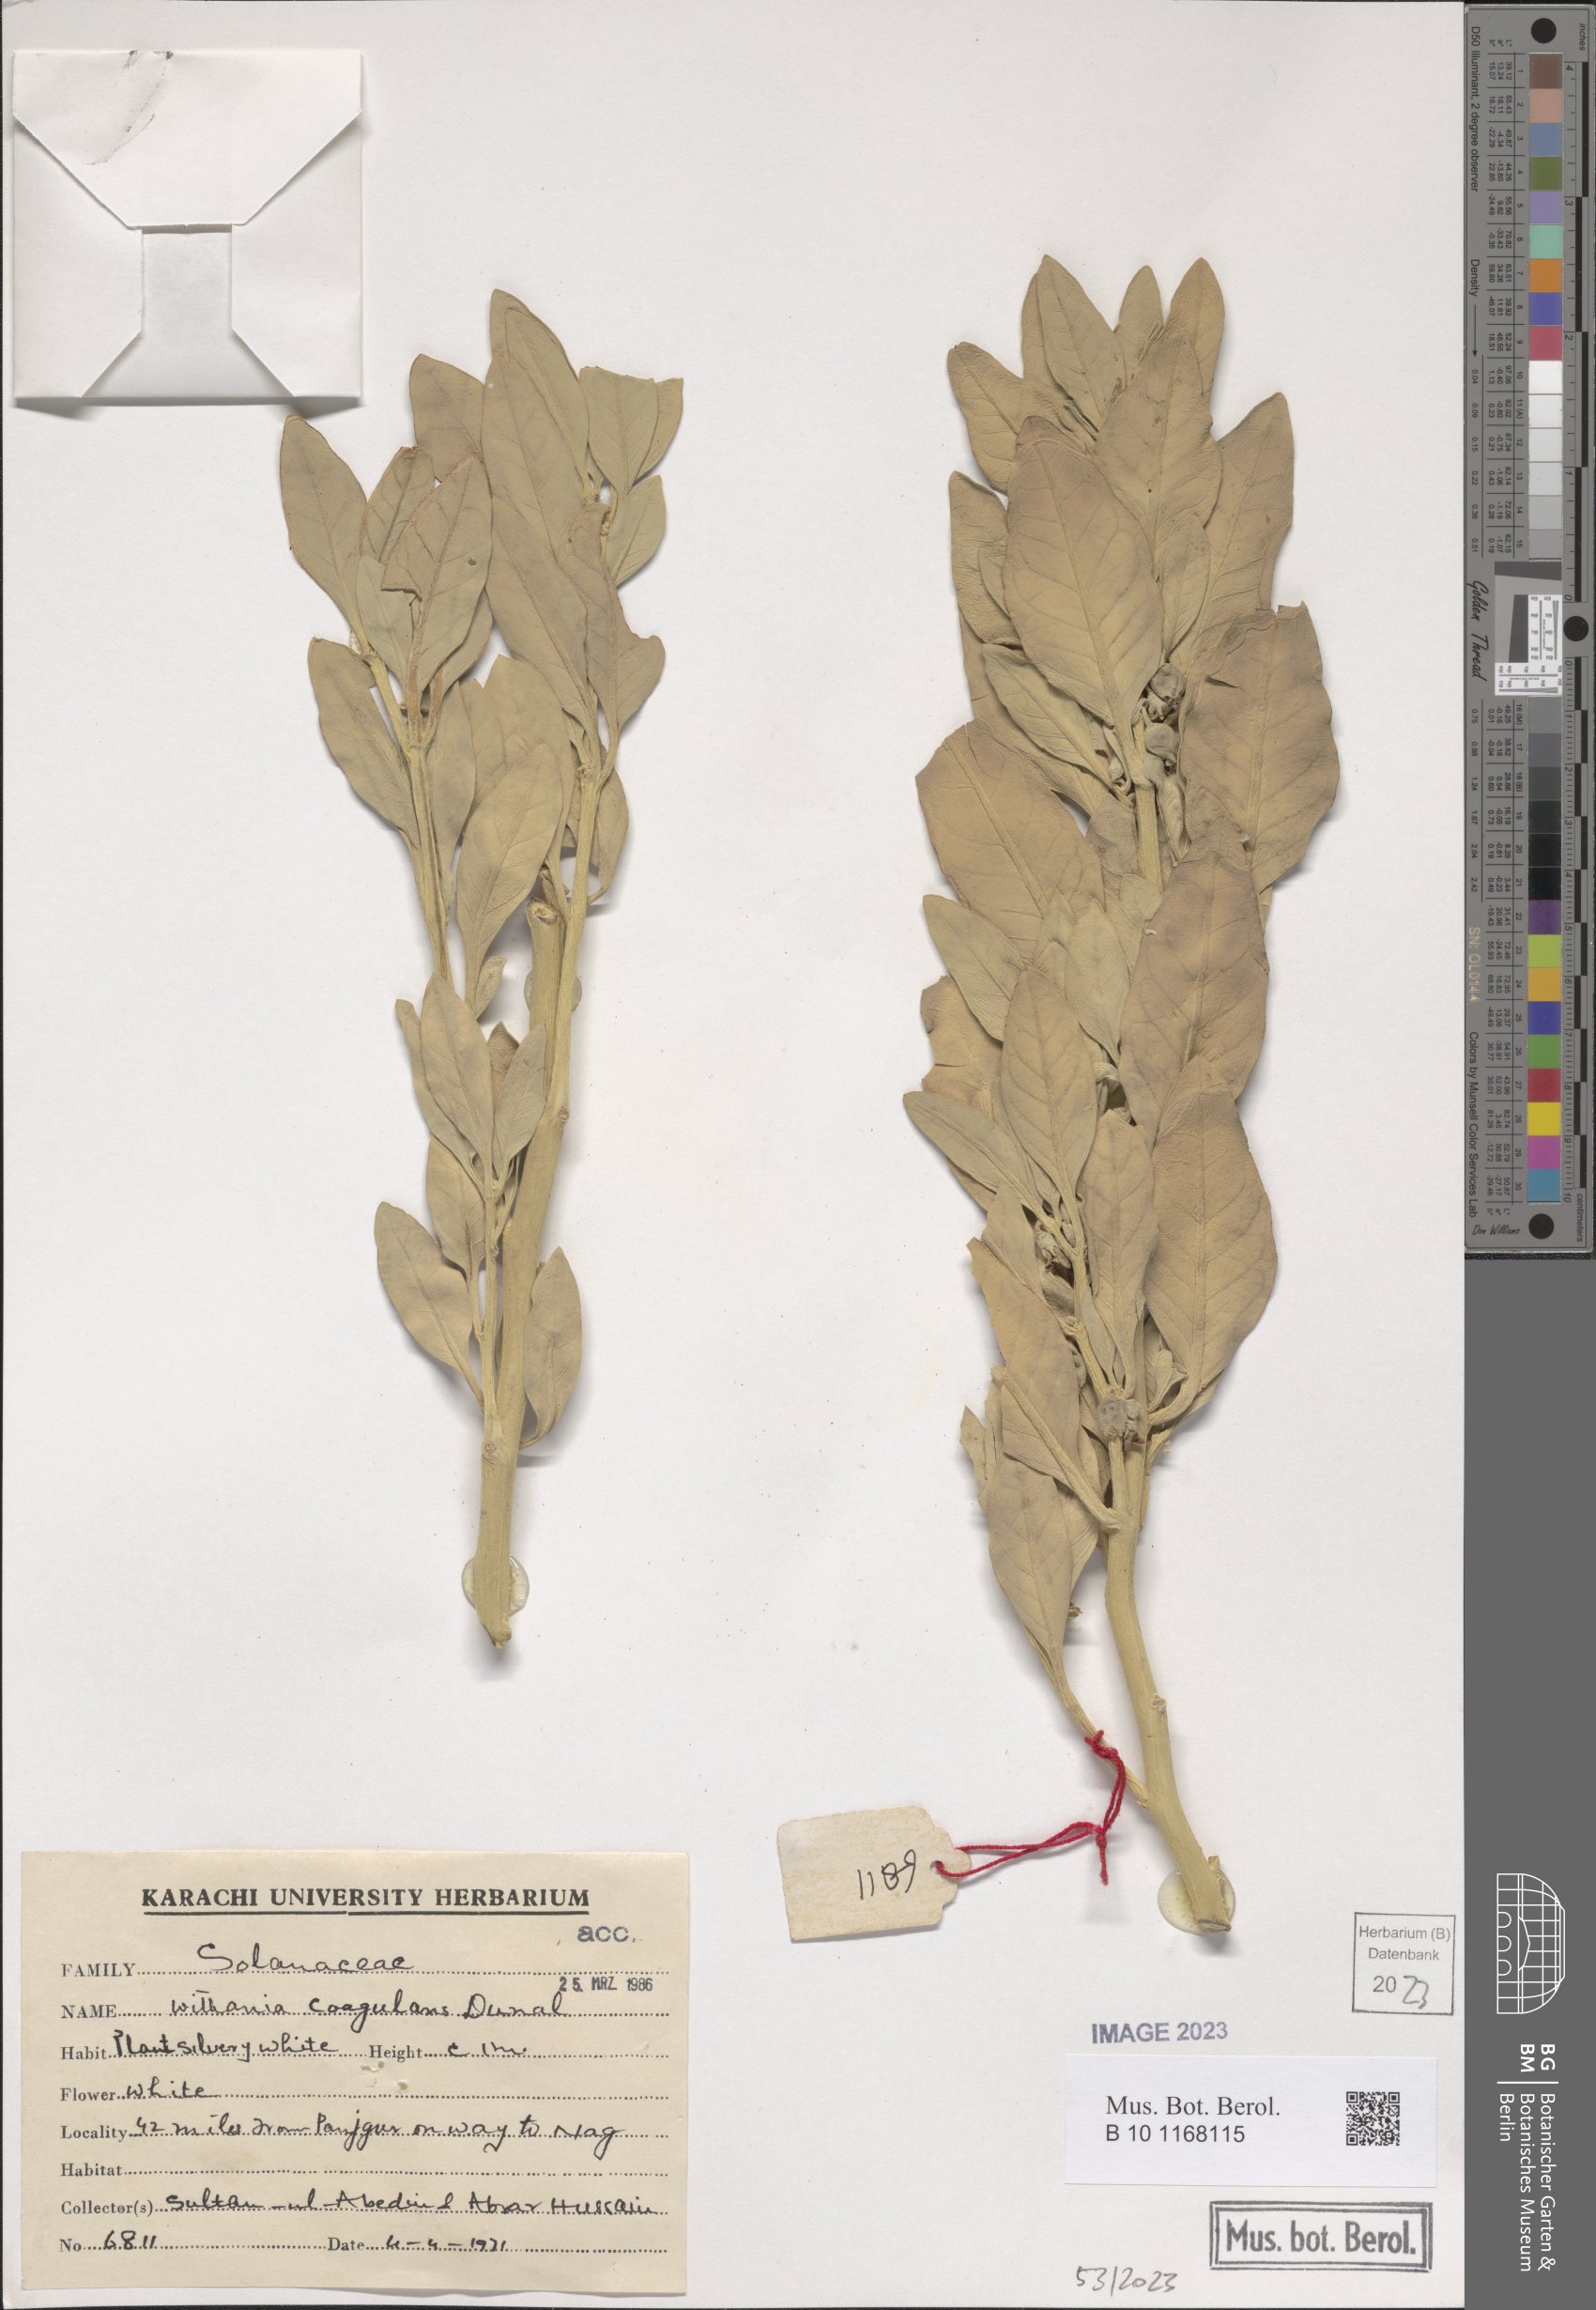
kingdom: Plantae
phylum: Tracheophyta
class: Magnoliopsida
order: Solanales
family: Solanaceae
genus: Withania
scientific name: Withania coagulans
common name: Vegetable rennet
